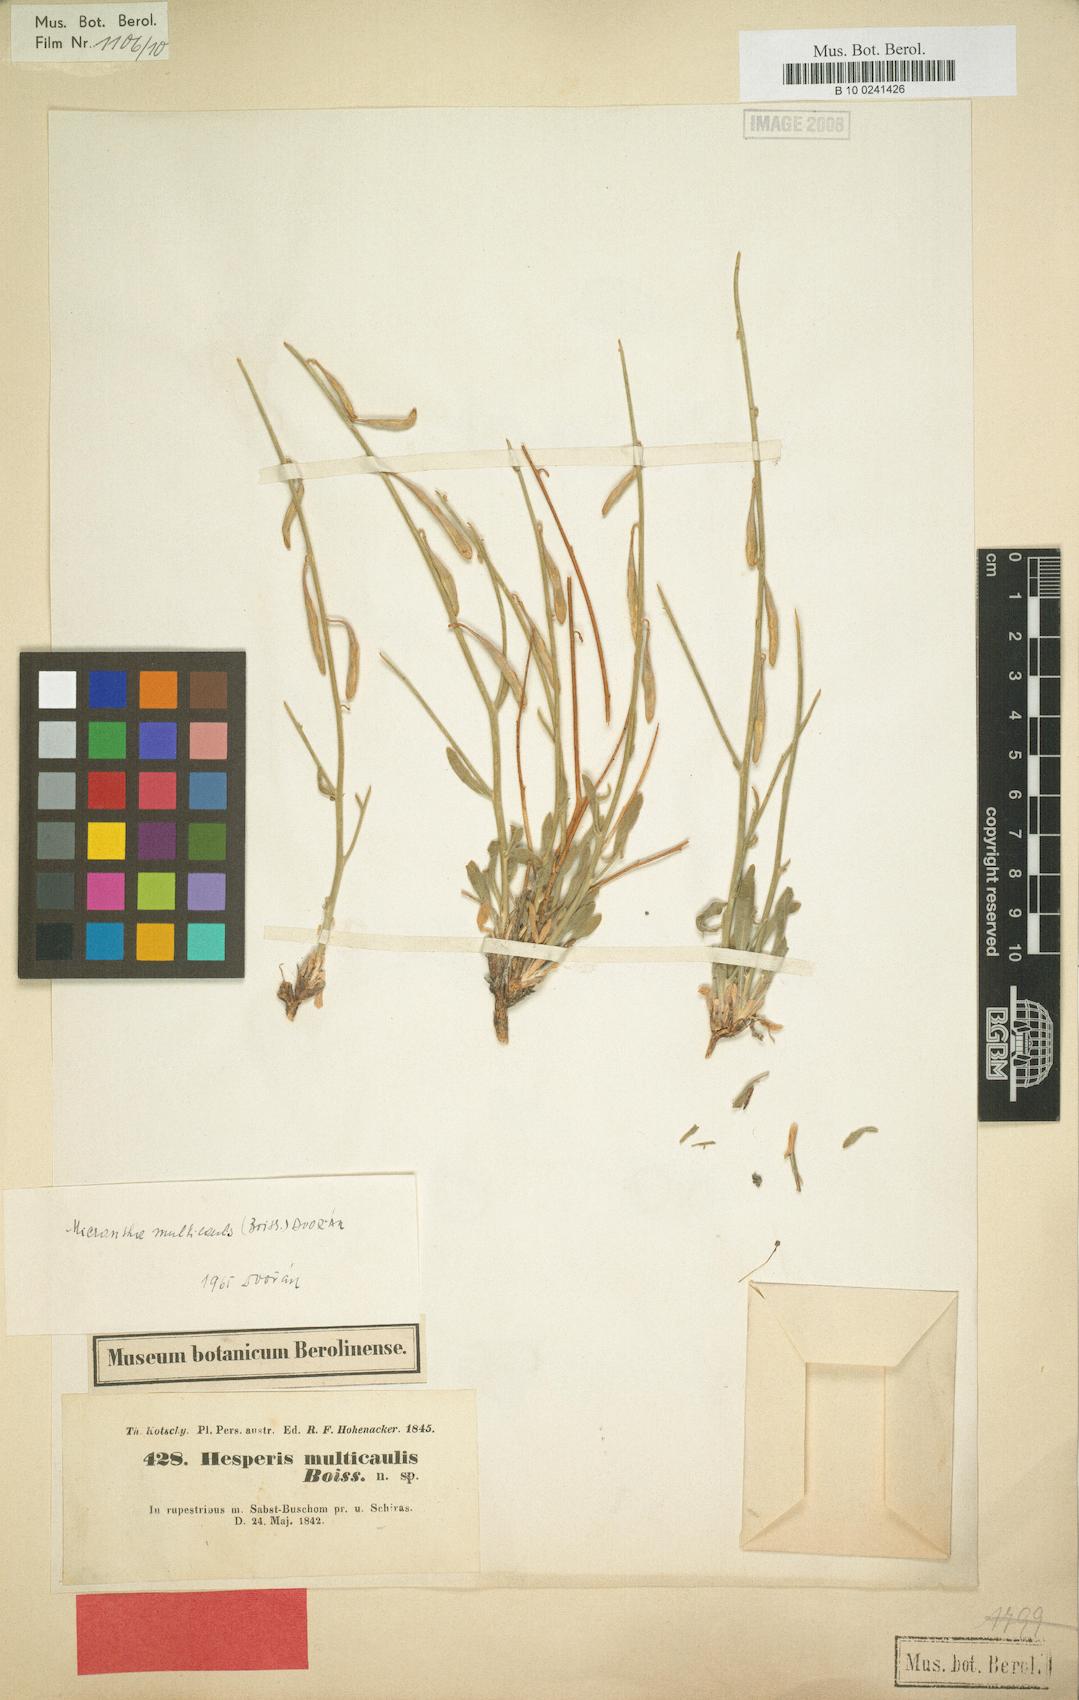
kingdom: Plantae
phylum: Tracheophyta
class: Magnoliopsida
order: Brassicales
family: Brassicaceae
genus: Micrantha
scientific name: Micrantha multicaulis
